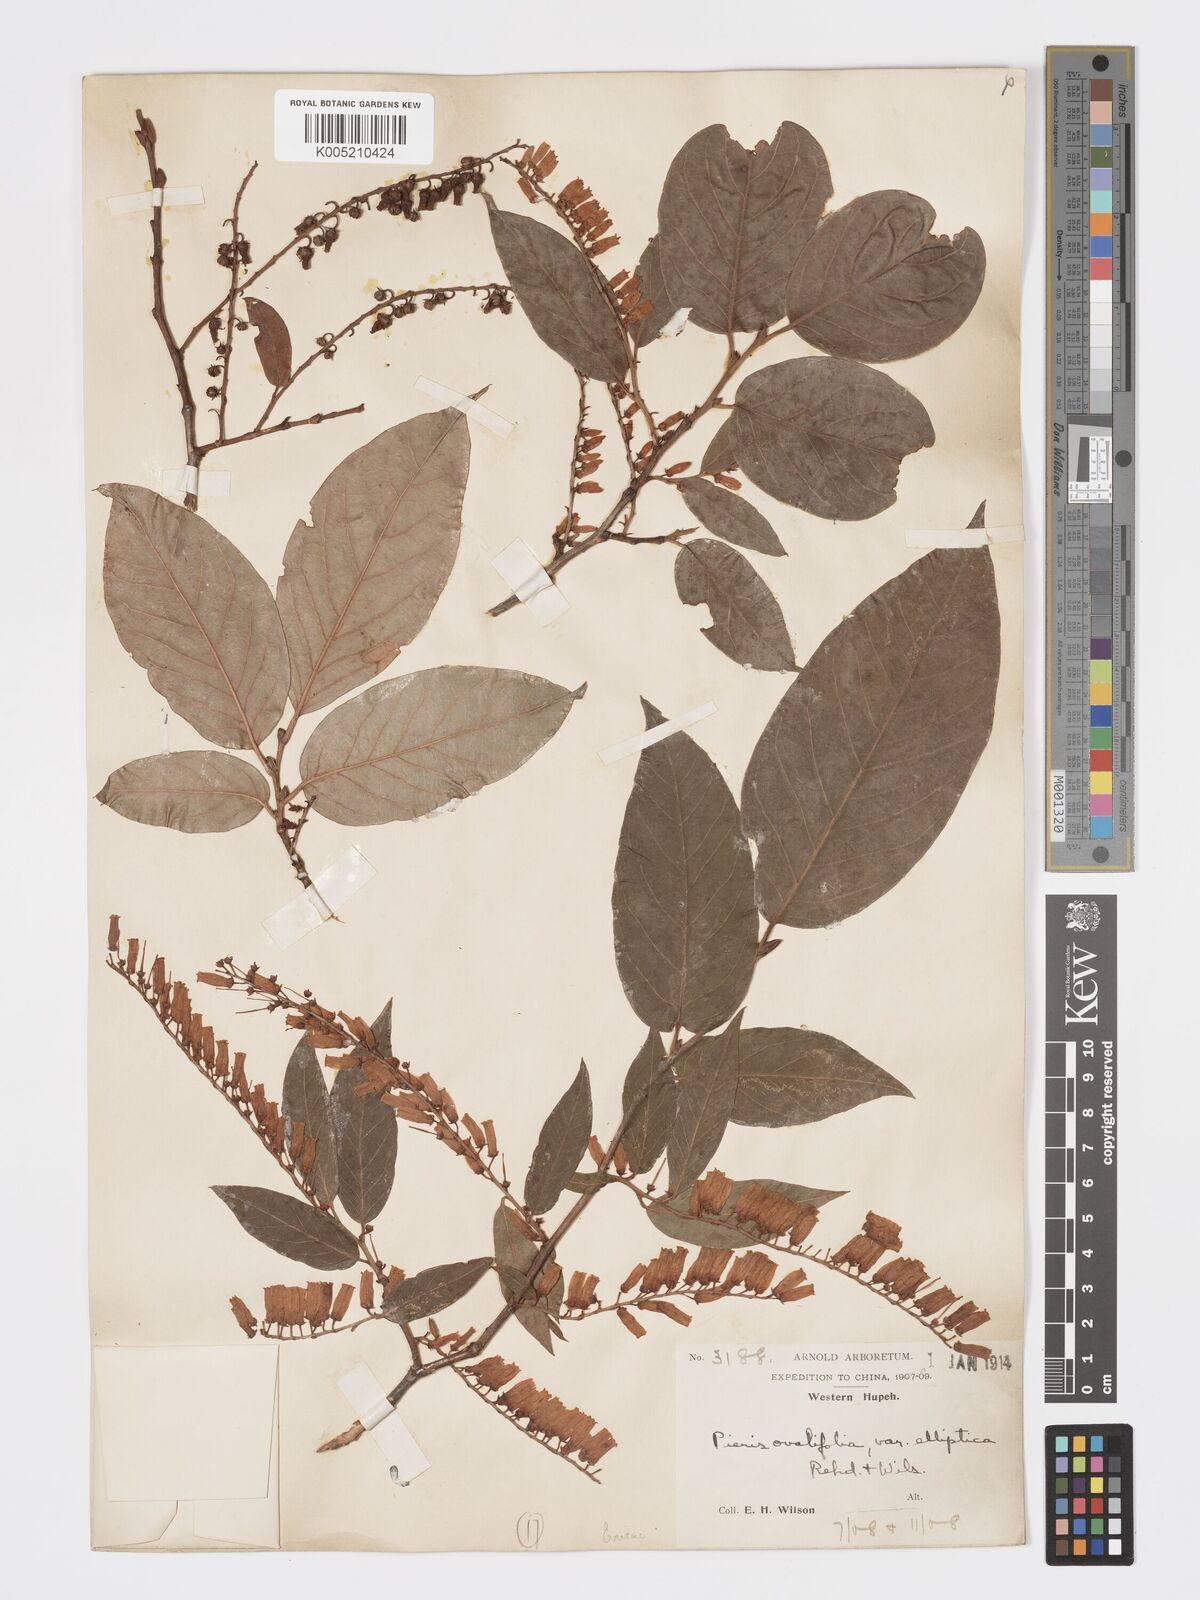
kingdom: Plantae
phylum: Tracheophyta
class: Magnoliopsida
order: Ericales
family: Ericaceae
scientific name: Ericaceae
